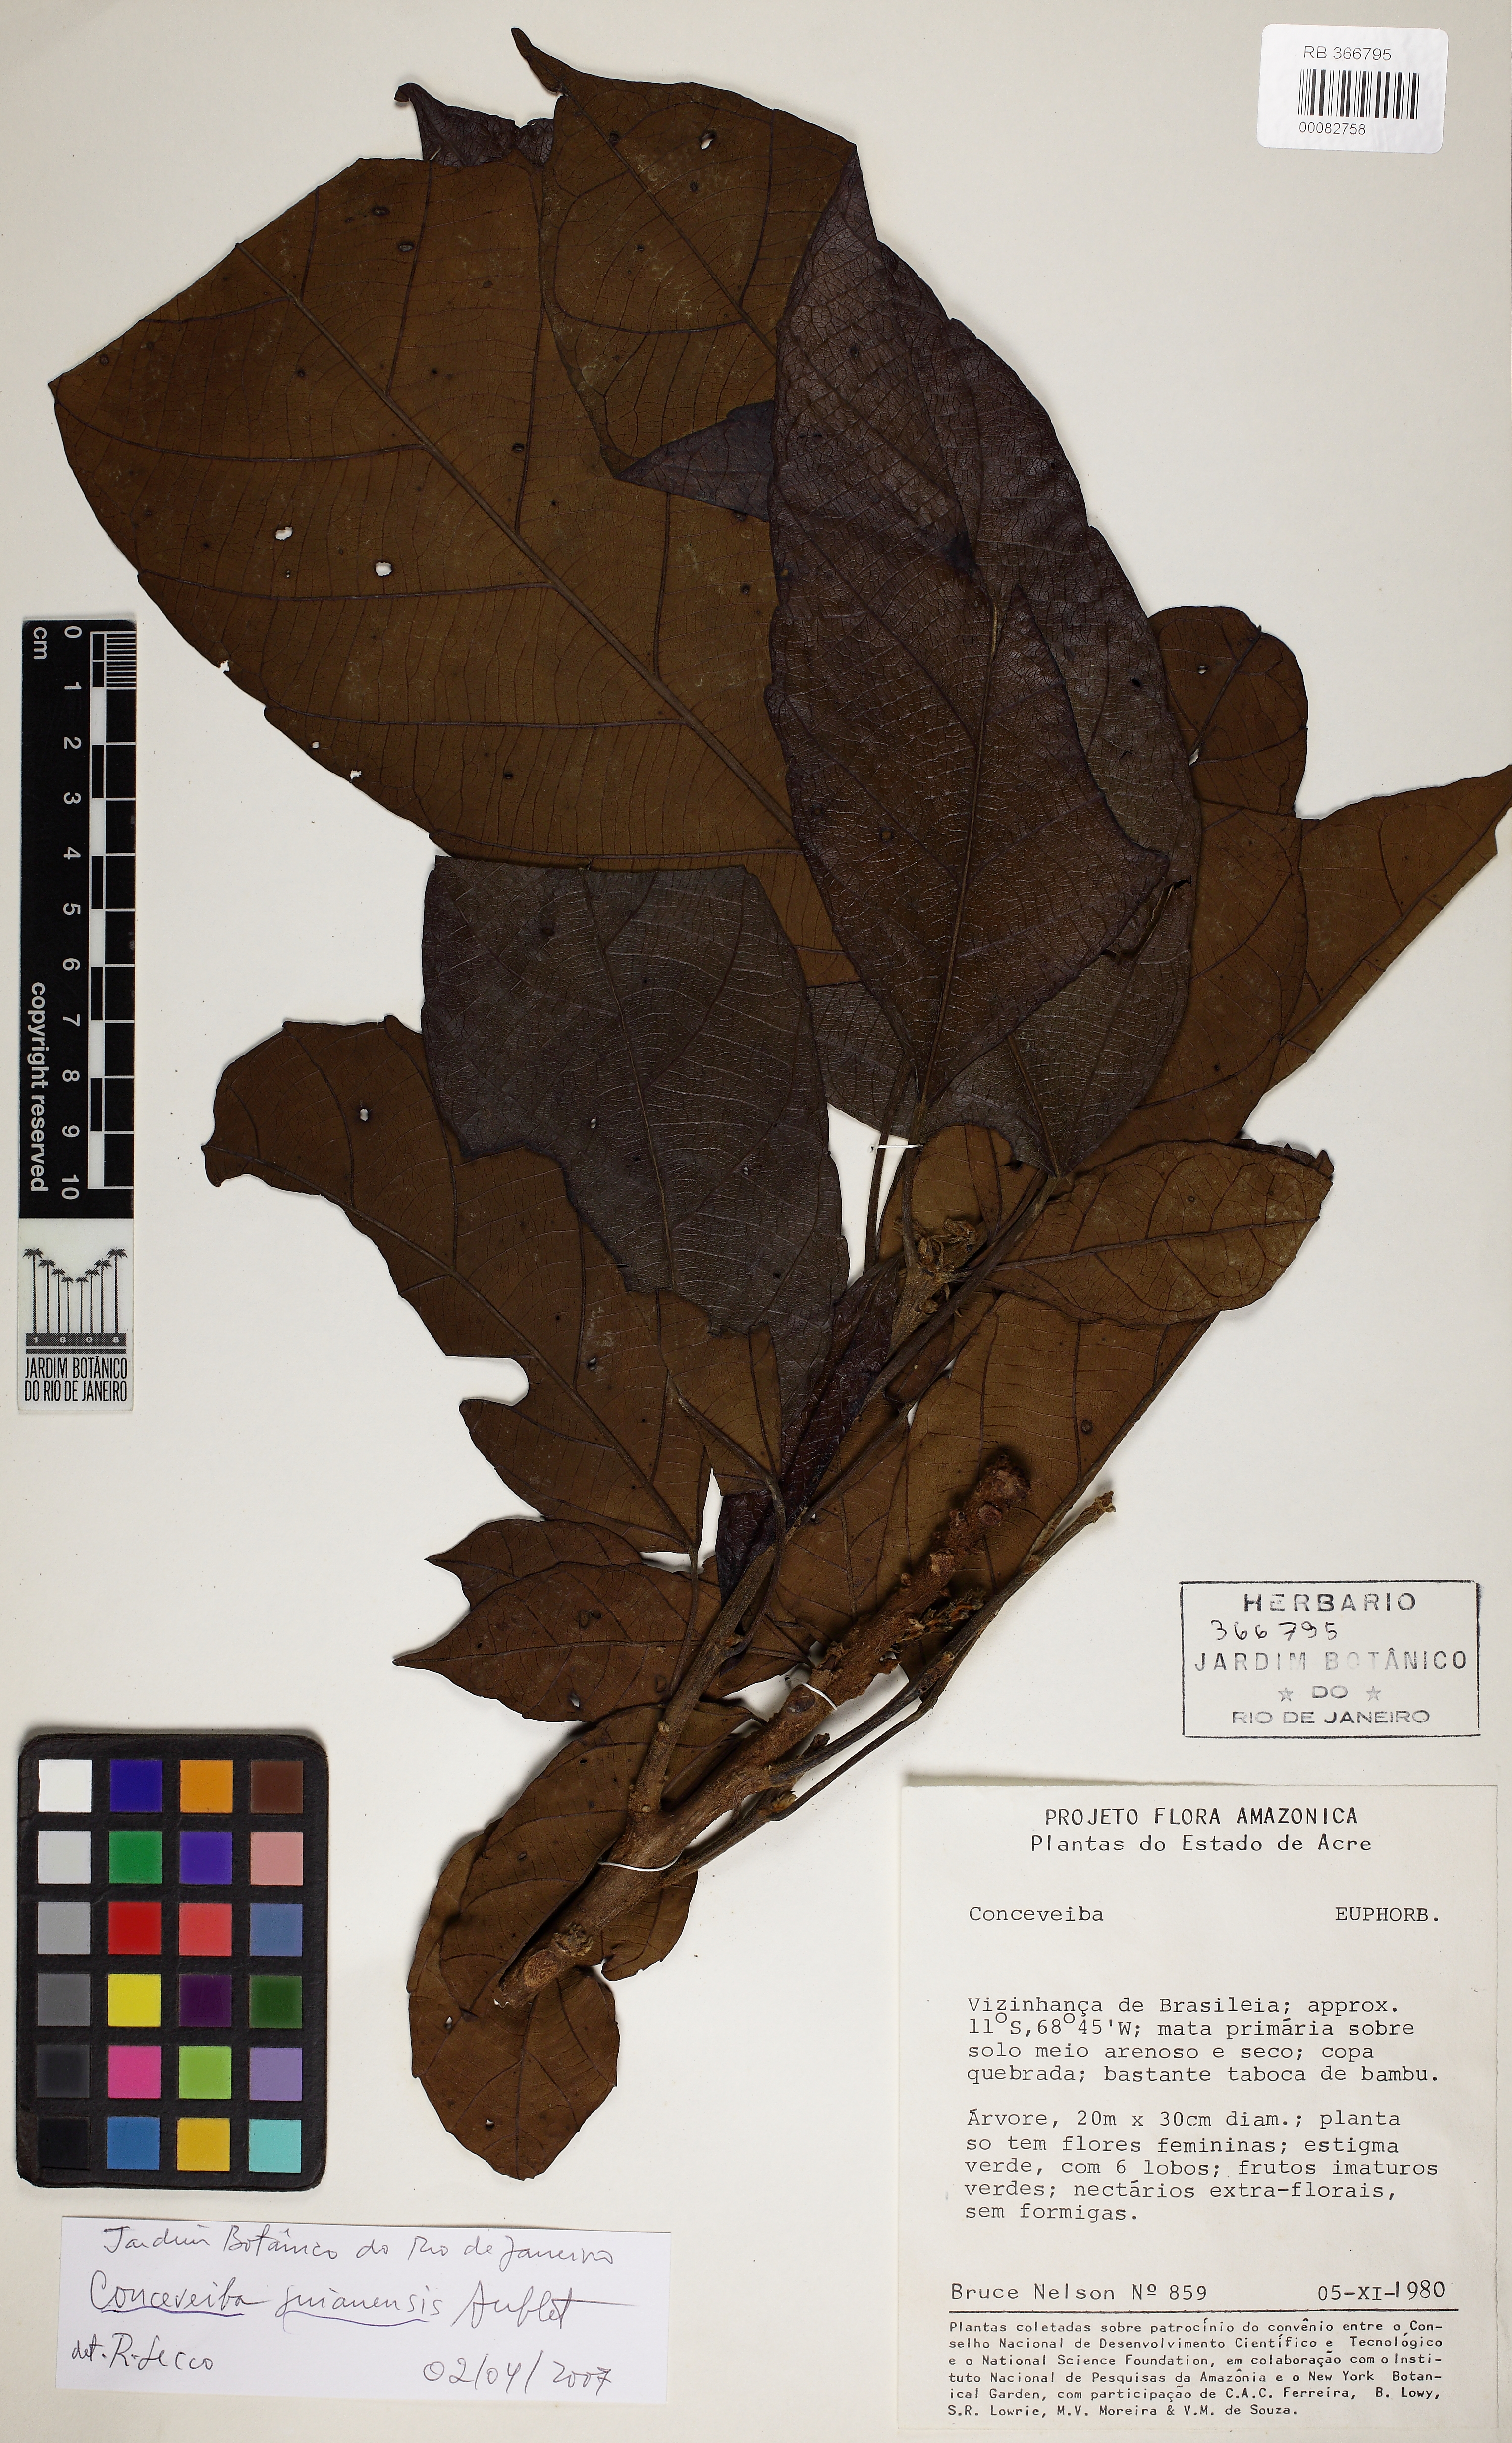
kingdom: Plantae
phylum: Tracheophyta
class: Magnoliopsida
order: Malpighiales
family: Euphorbiaceae
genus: Conceveiba
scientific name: Conceveiba guianensis
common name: Poatoru
